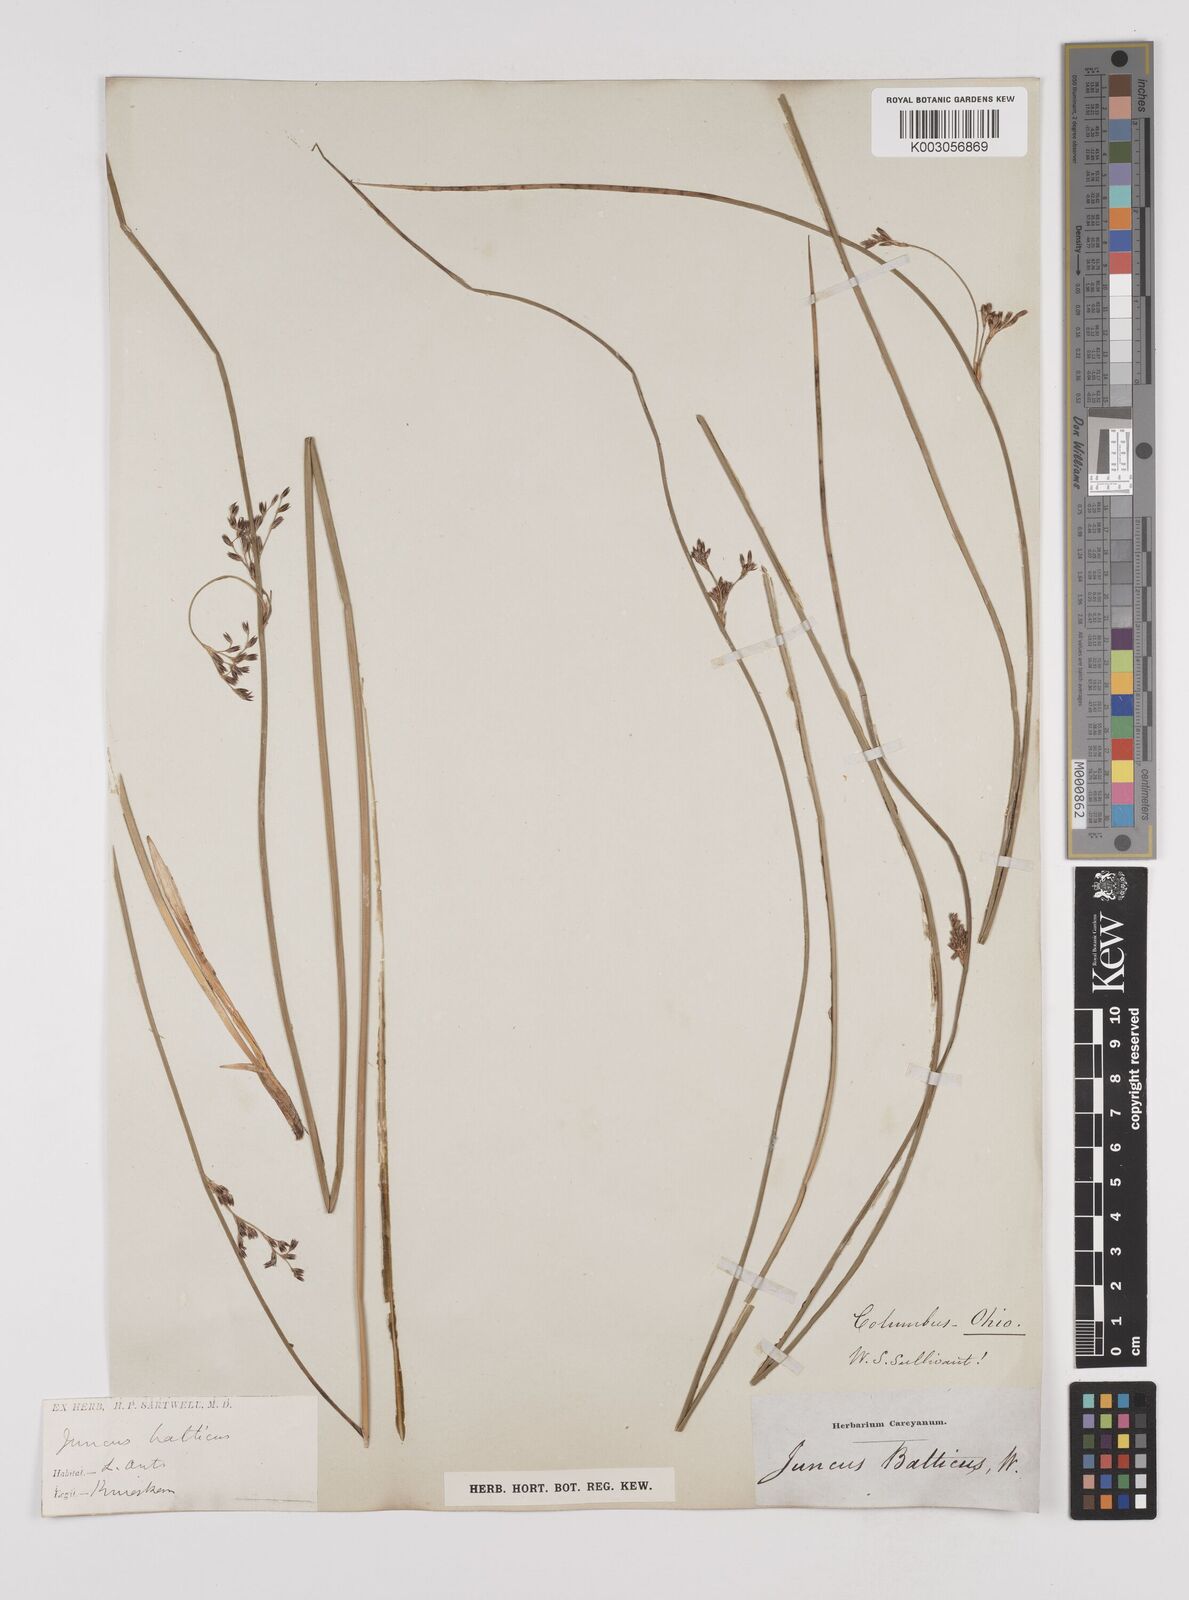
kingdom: Plantae
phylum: Tracheophyta
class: Liliopsida
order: Poales
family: Juncaceae
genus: Juncus
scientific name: Juncus balticus
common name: Baltic rush
